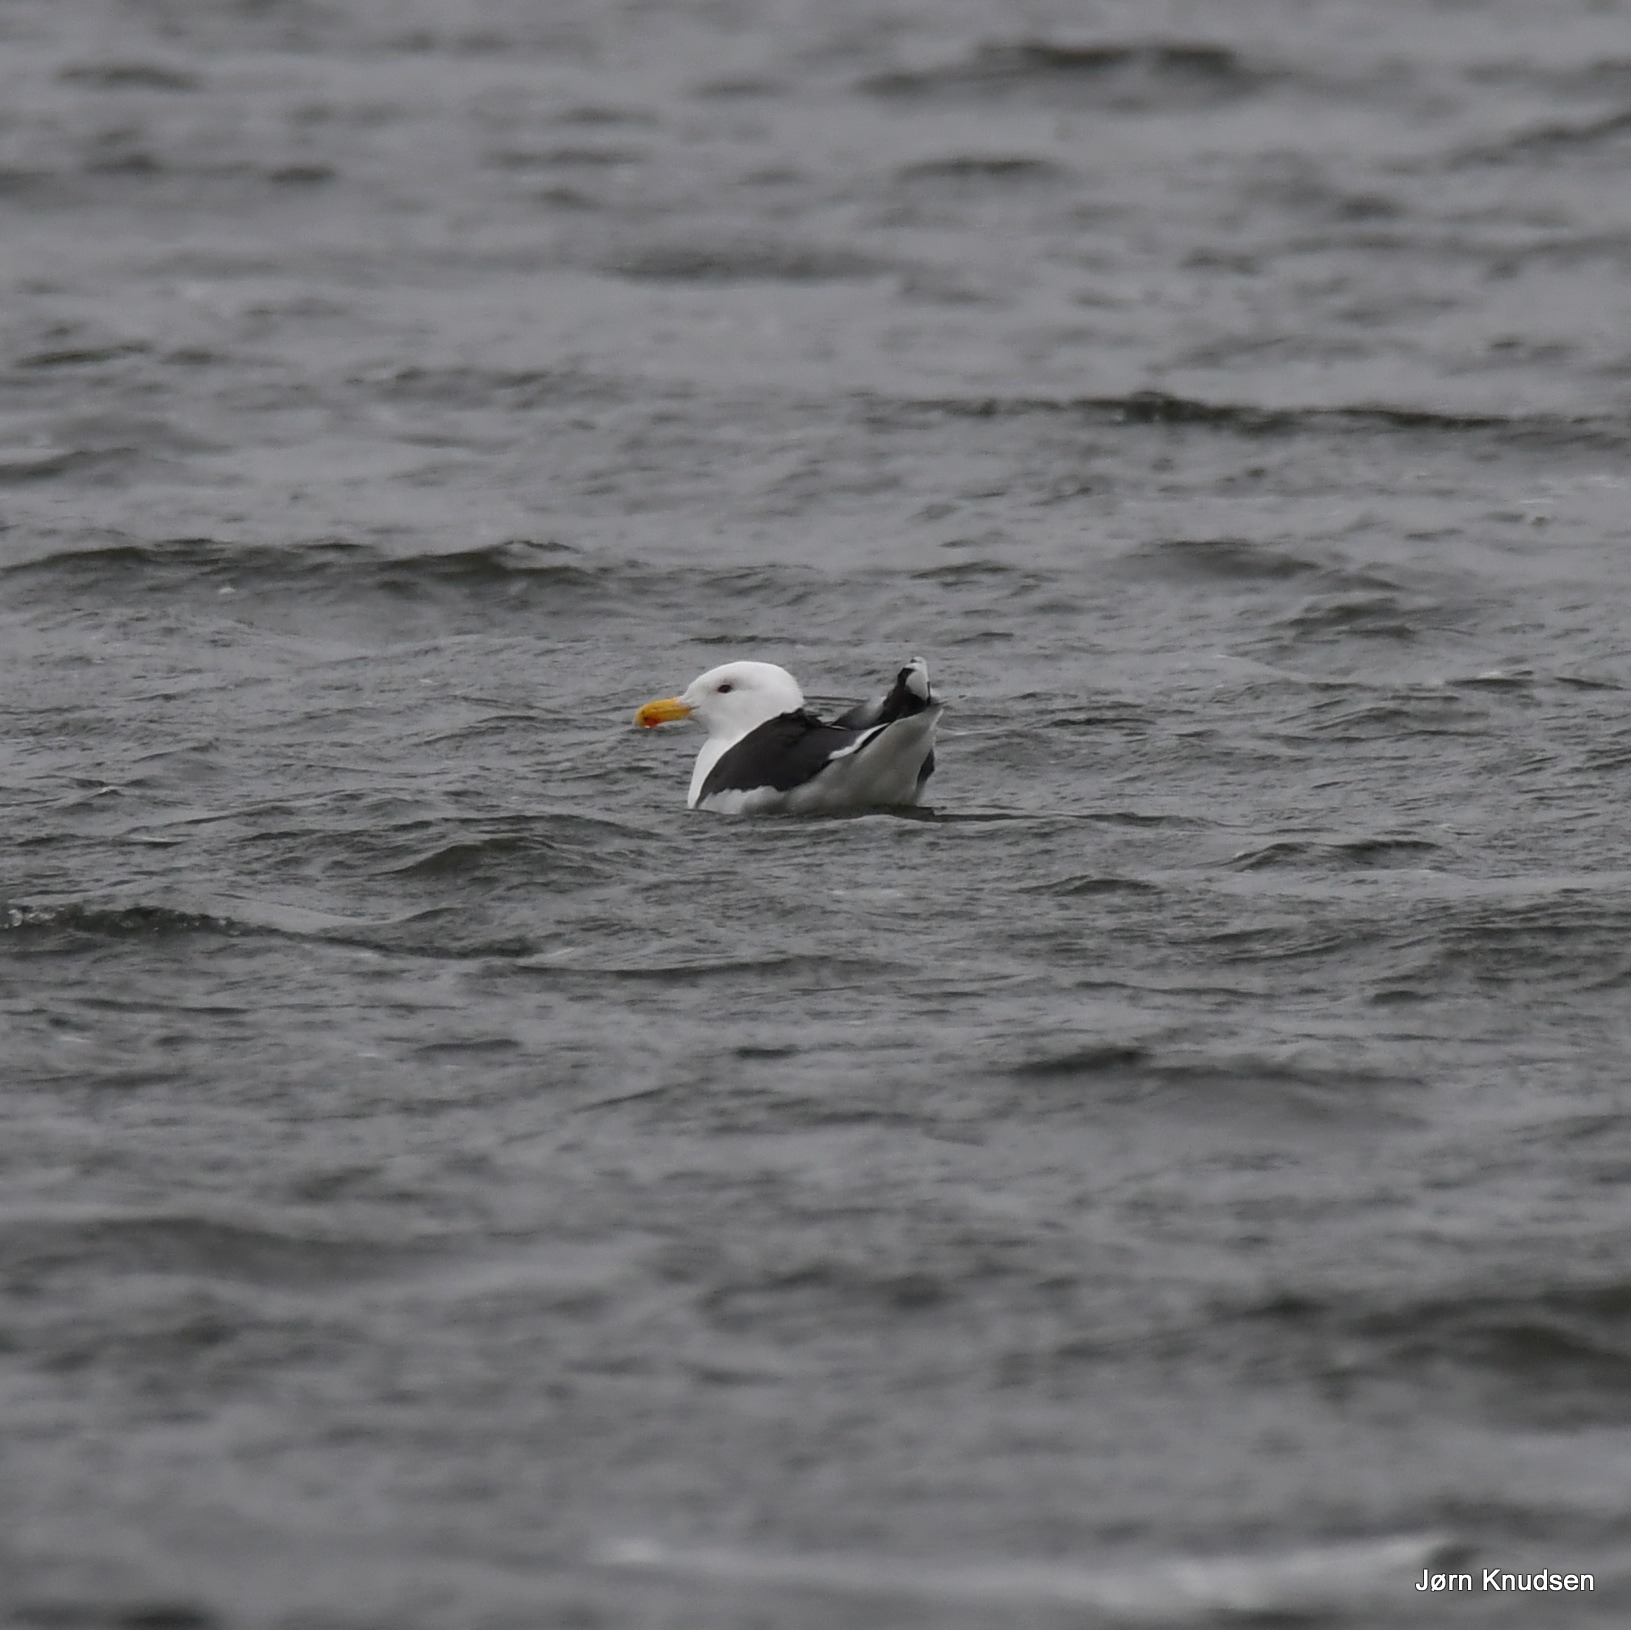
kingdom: Animalia
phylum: Chordata
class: Aves
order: Charadriiformes
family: Laridae
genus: Larus
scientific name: Larus marinus
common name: Svartbag
